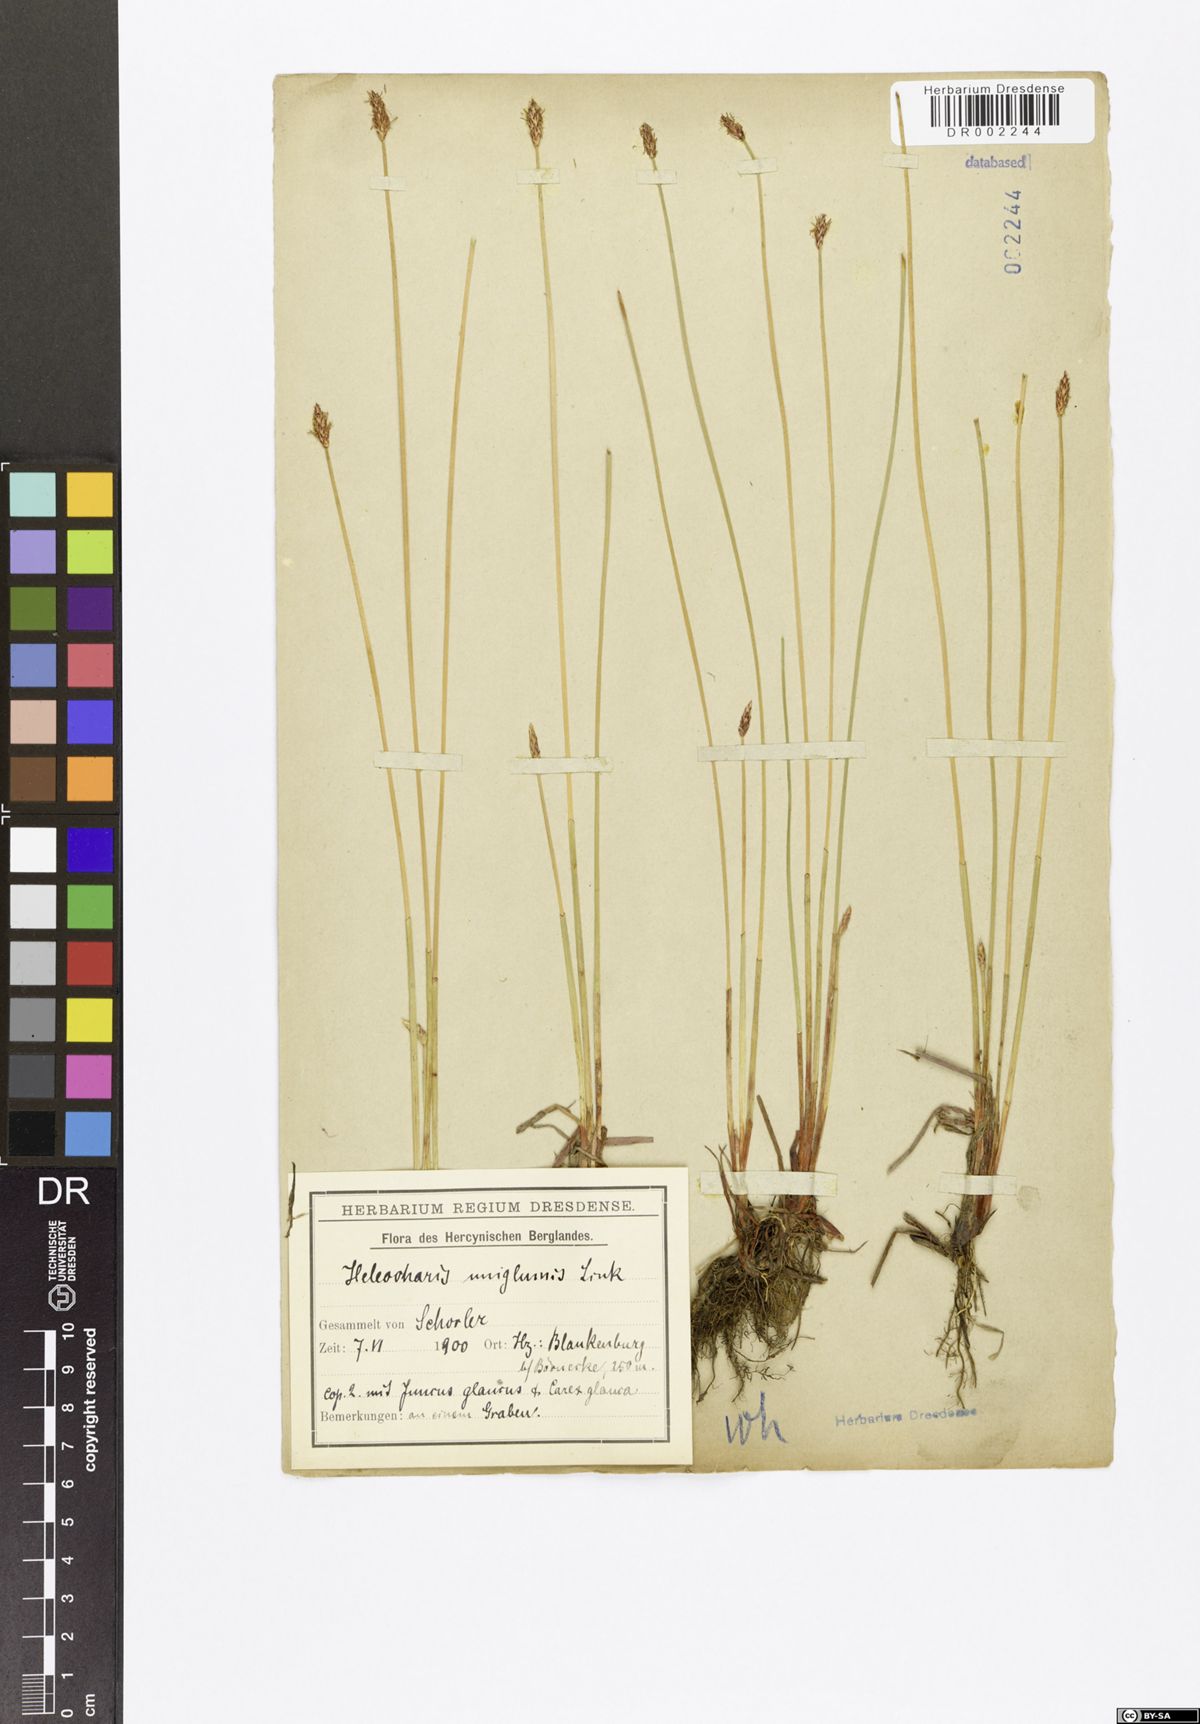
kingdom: Plantae
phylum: Tracheophyta
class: Liliopsida
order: Poales
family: Cyperaceae
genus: Eleocharis
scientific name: Eleocharis uniglumis
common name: Slender spike-rush
